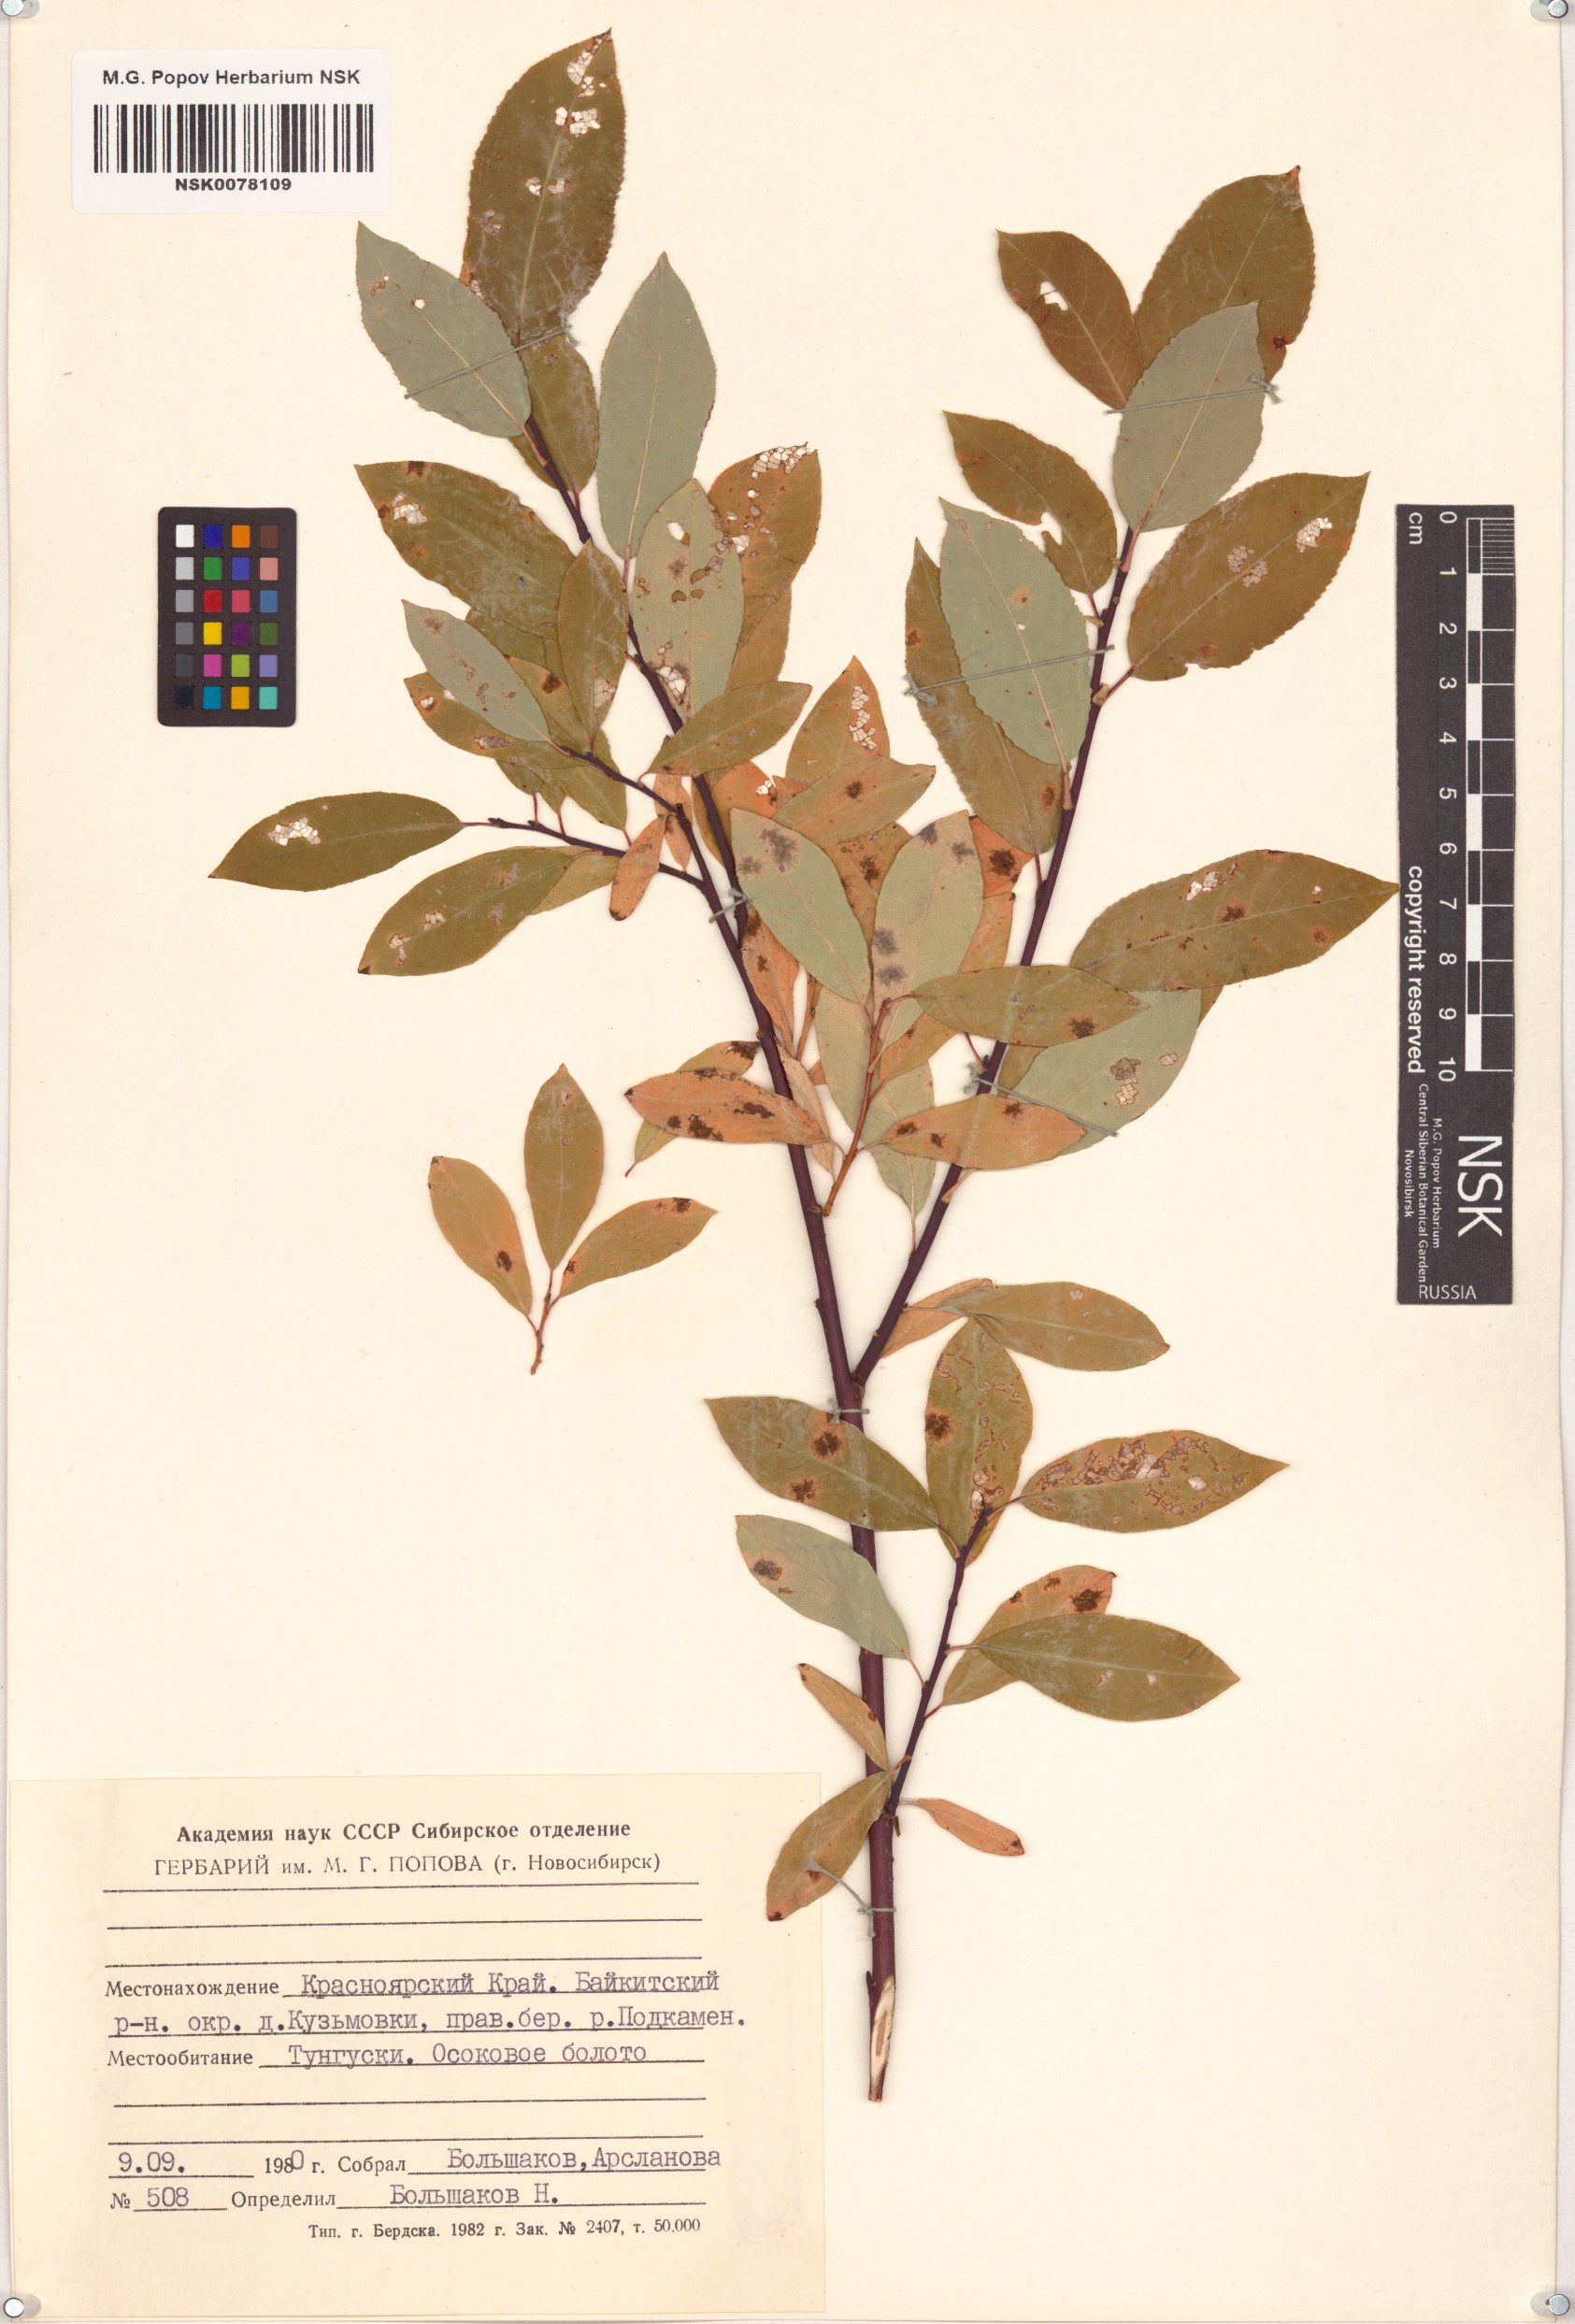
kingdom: Plantae
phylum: Tracheophyta
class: Magnoliopsida
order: Malpighiales
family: Salicaceae
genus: Salix
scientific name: Salix hastata
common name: Halberd willow
